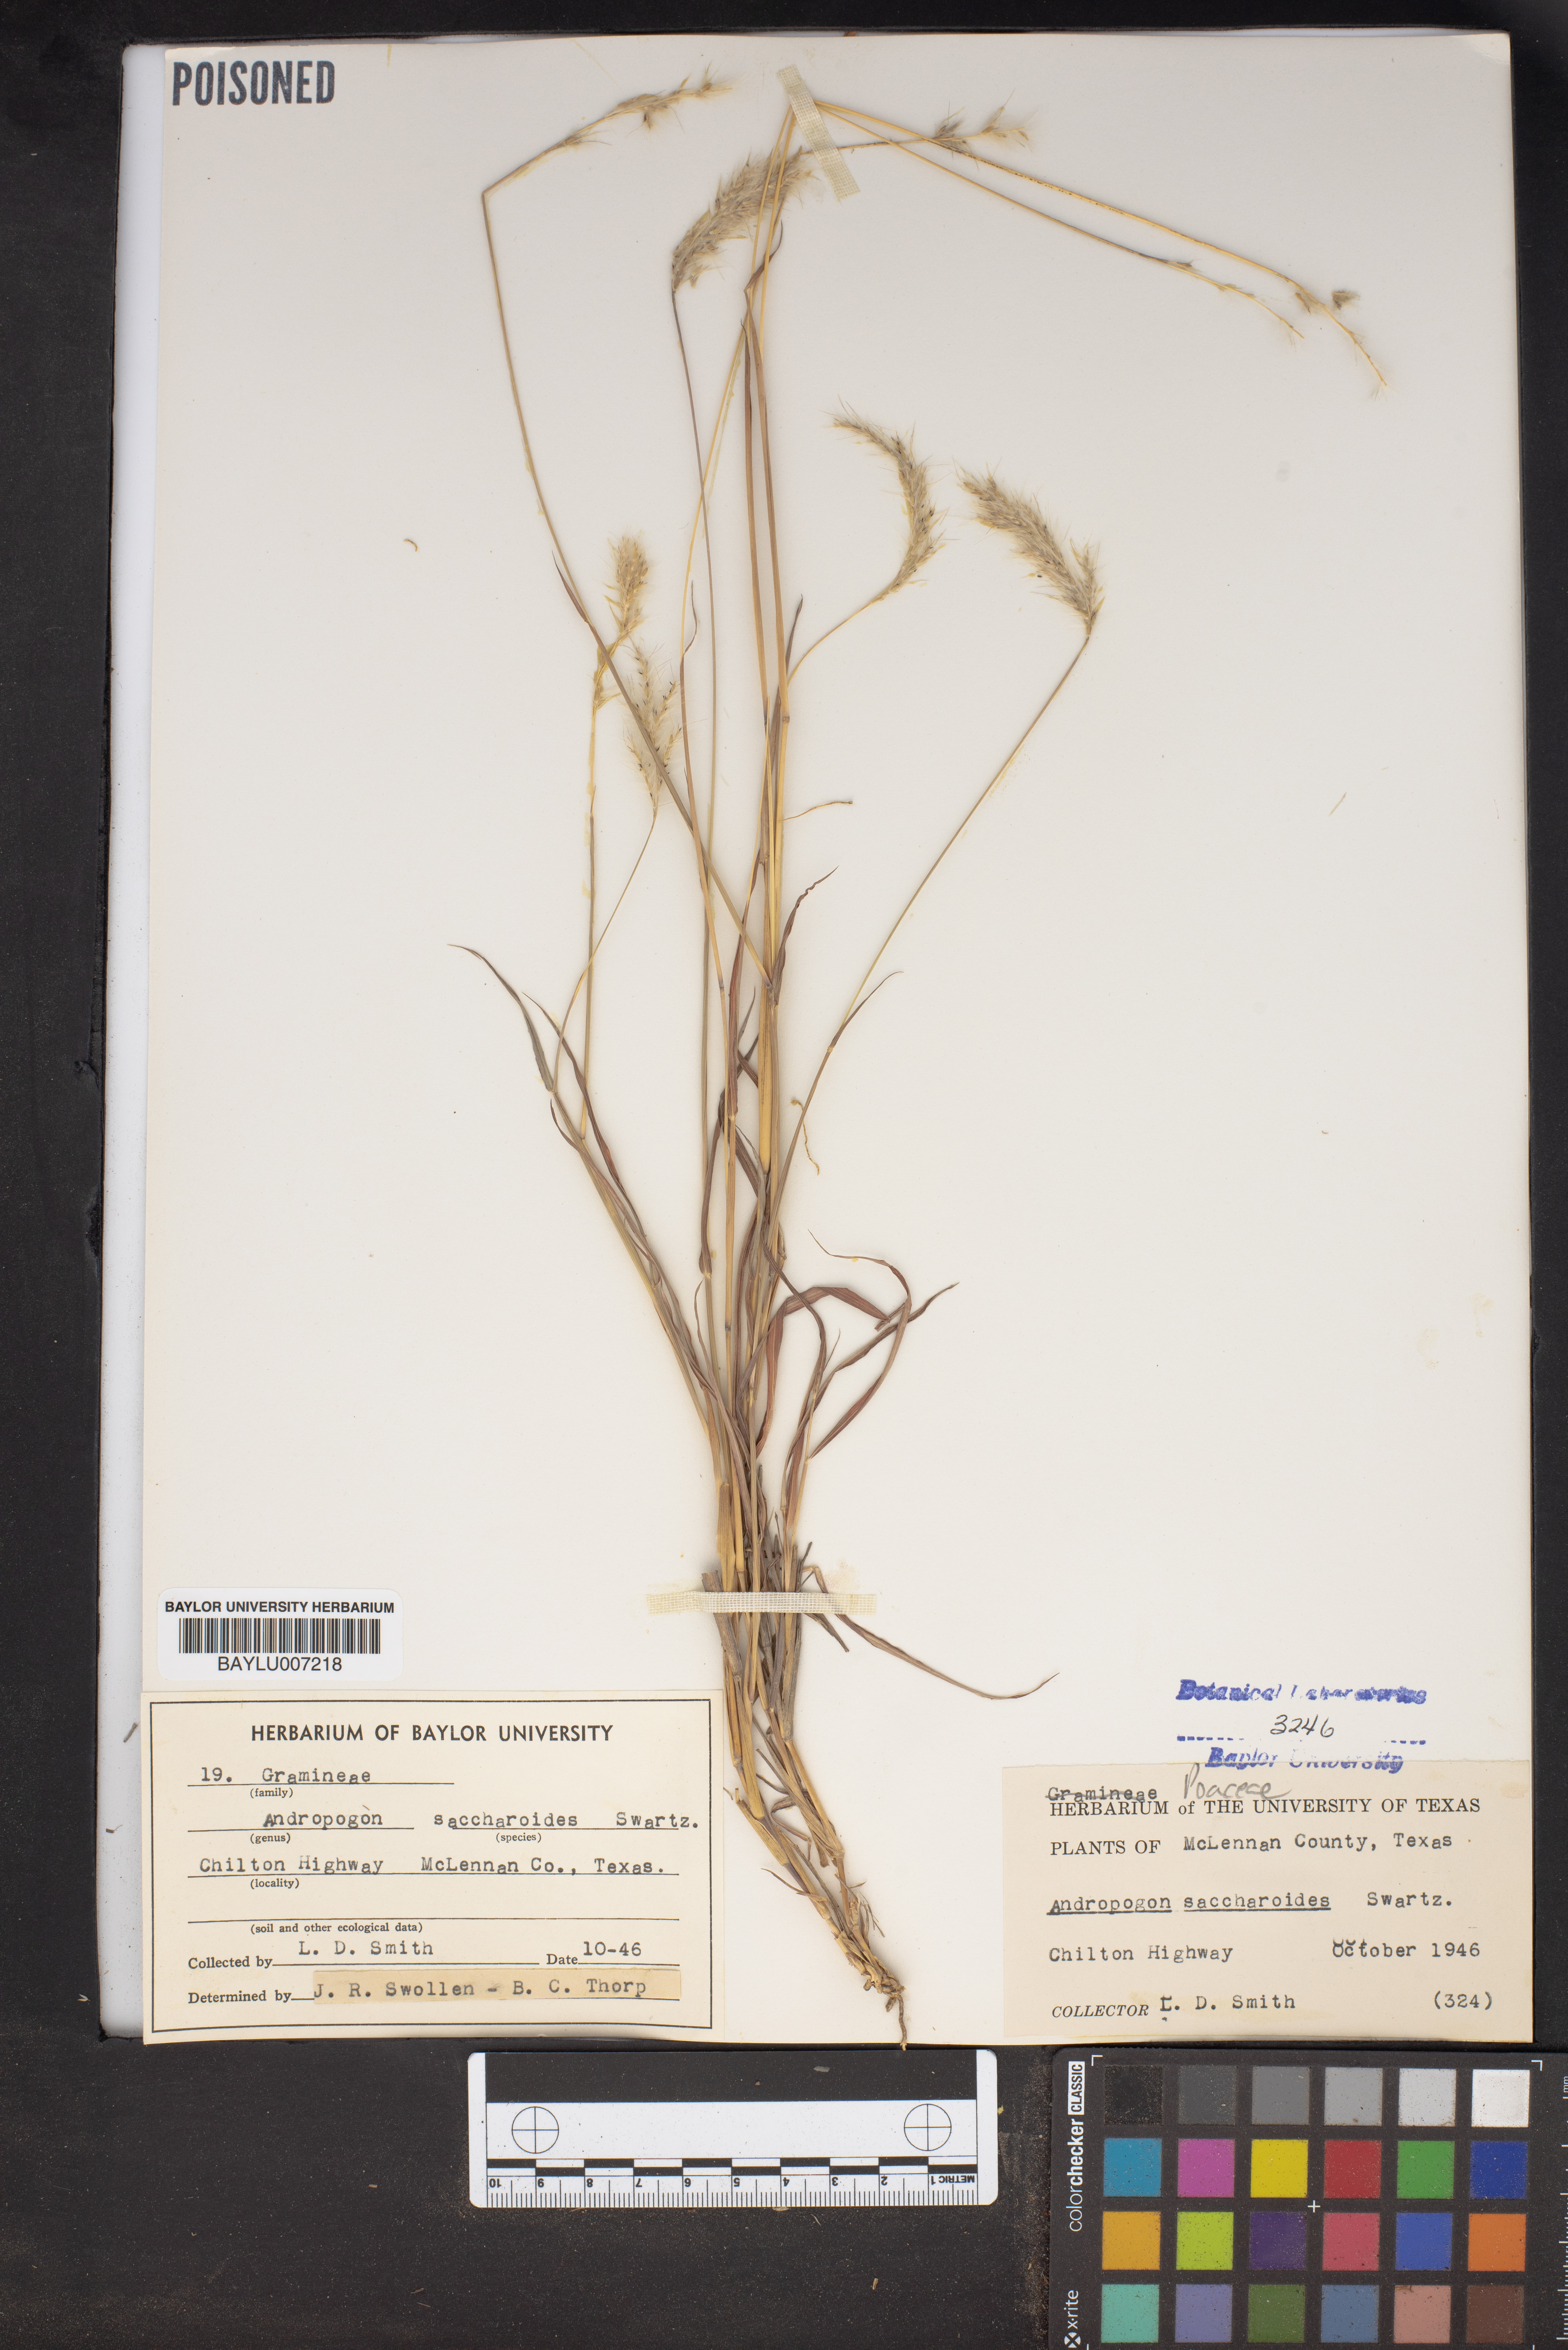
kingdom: Plantae
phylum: Tracheophyta
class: Liliopsida
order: Poales
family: Poaceae
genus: Bothriochloa
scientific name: Bothriochloa saccharoides
